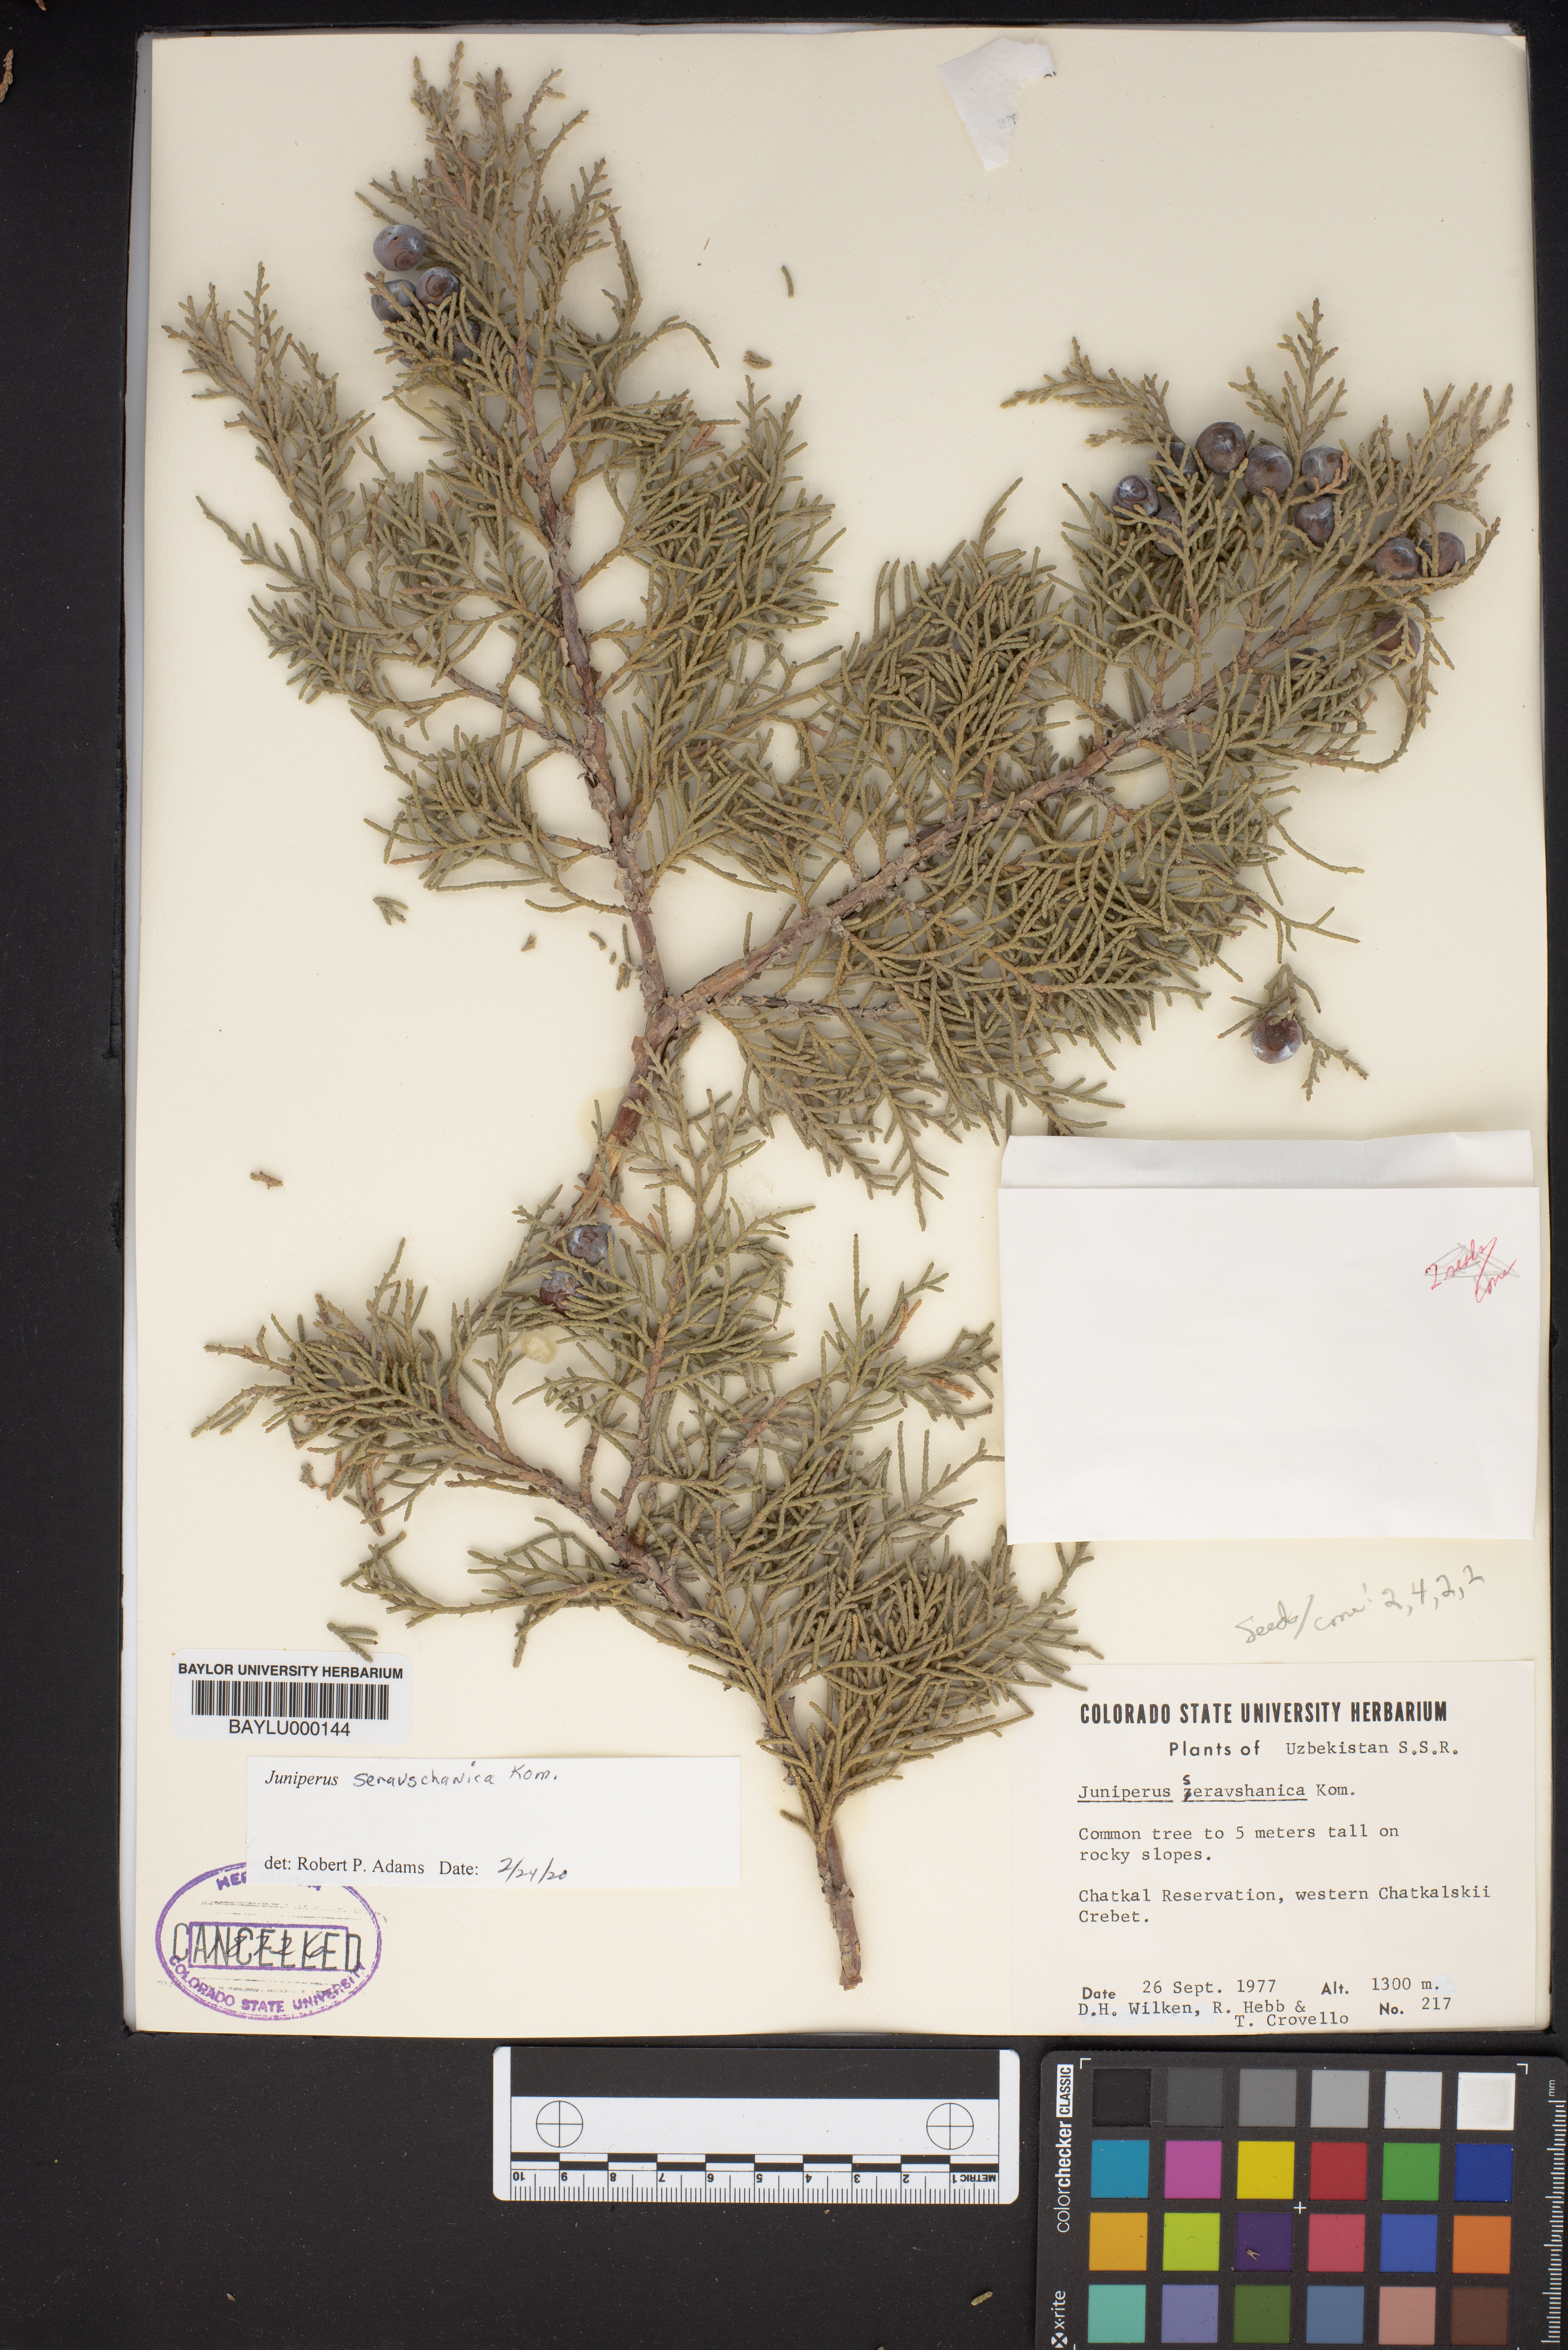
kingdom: Plantae
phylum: Tracheophyta
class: Pinopsida
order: Pinales
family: Cupressaceae
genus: Juniperus
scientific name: Juniperus excelsa
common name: Crimean juniper
